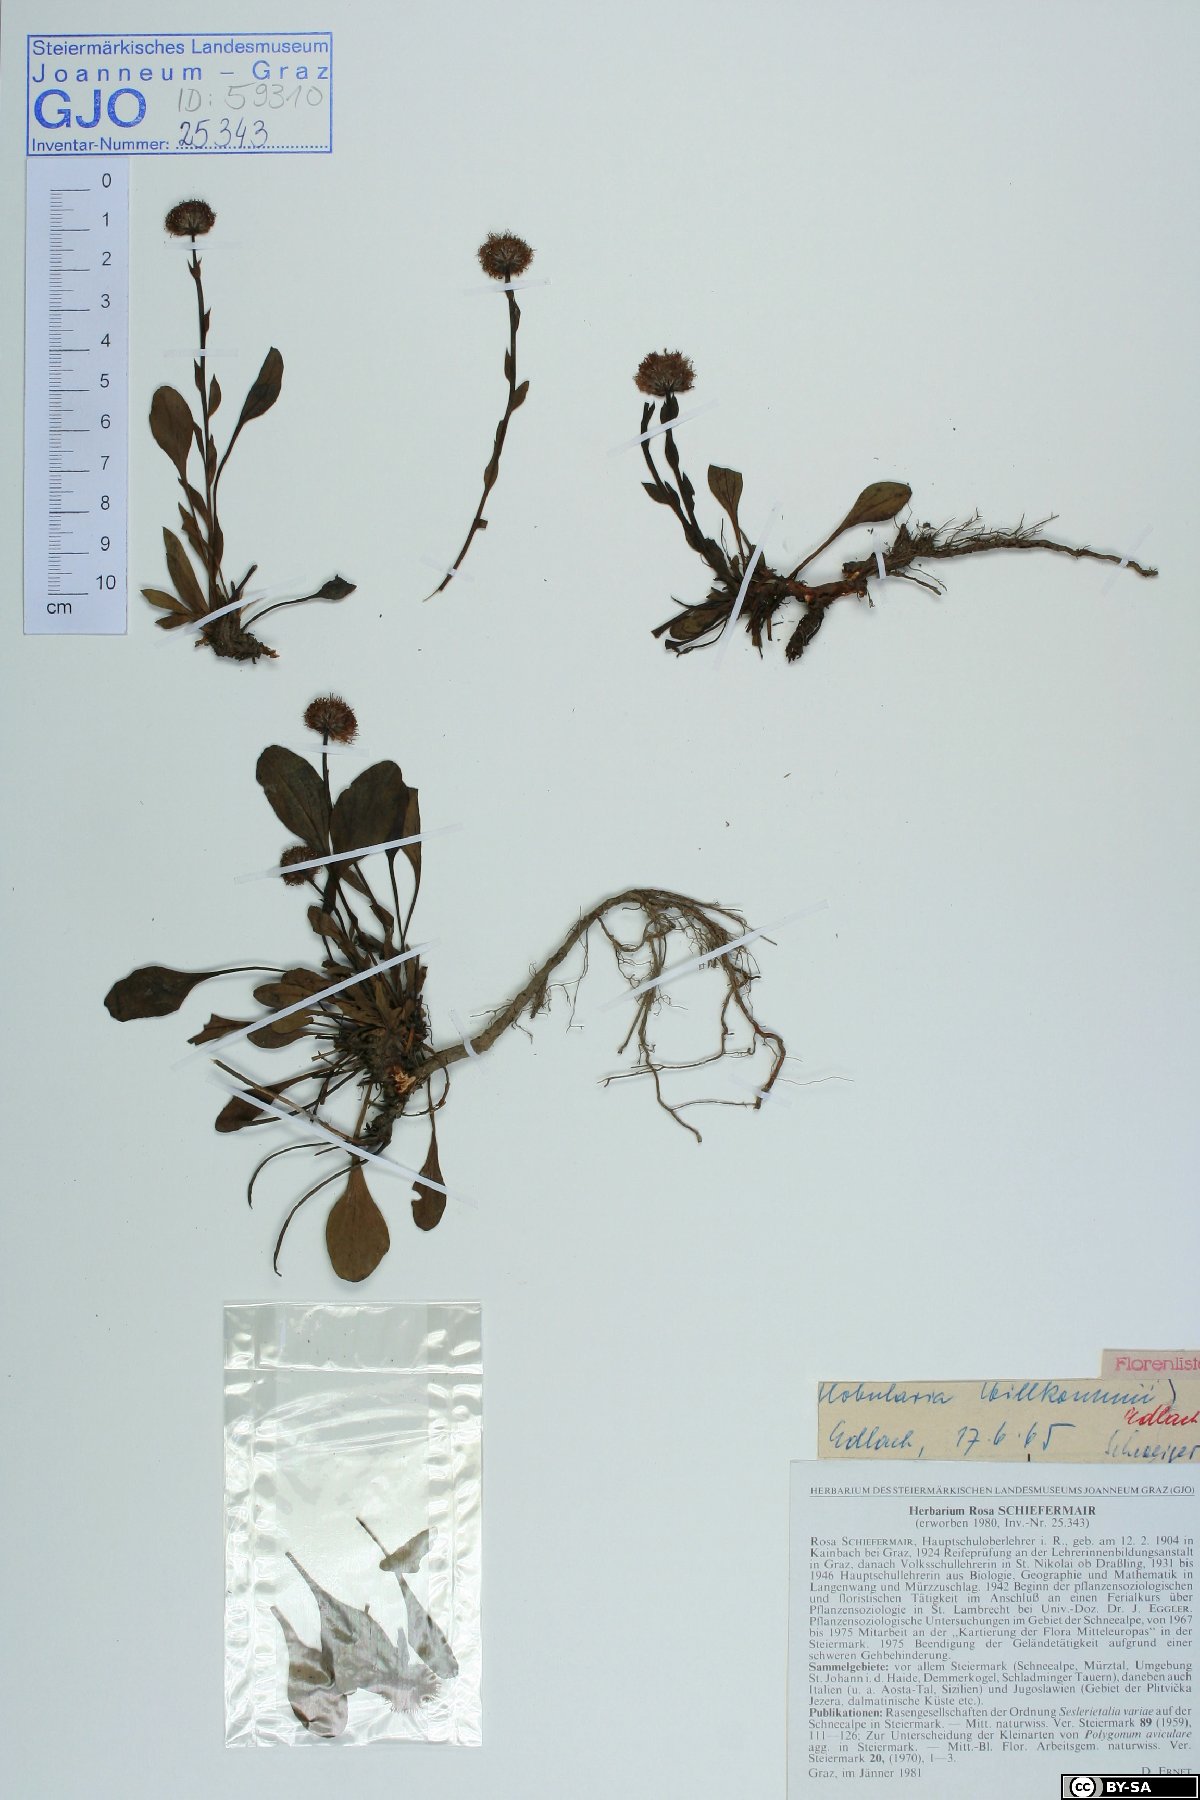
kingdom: Plantae
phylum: Tracheophyta
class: Magnoliopsida
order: Lamiales
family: Plantaginaceae
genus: Globularia
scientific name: Globularia bisnagarica
